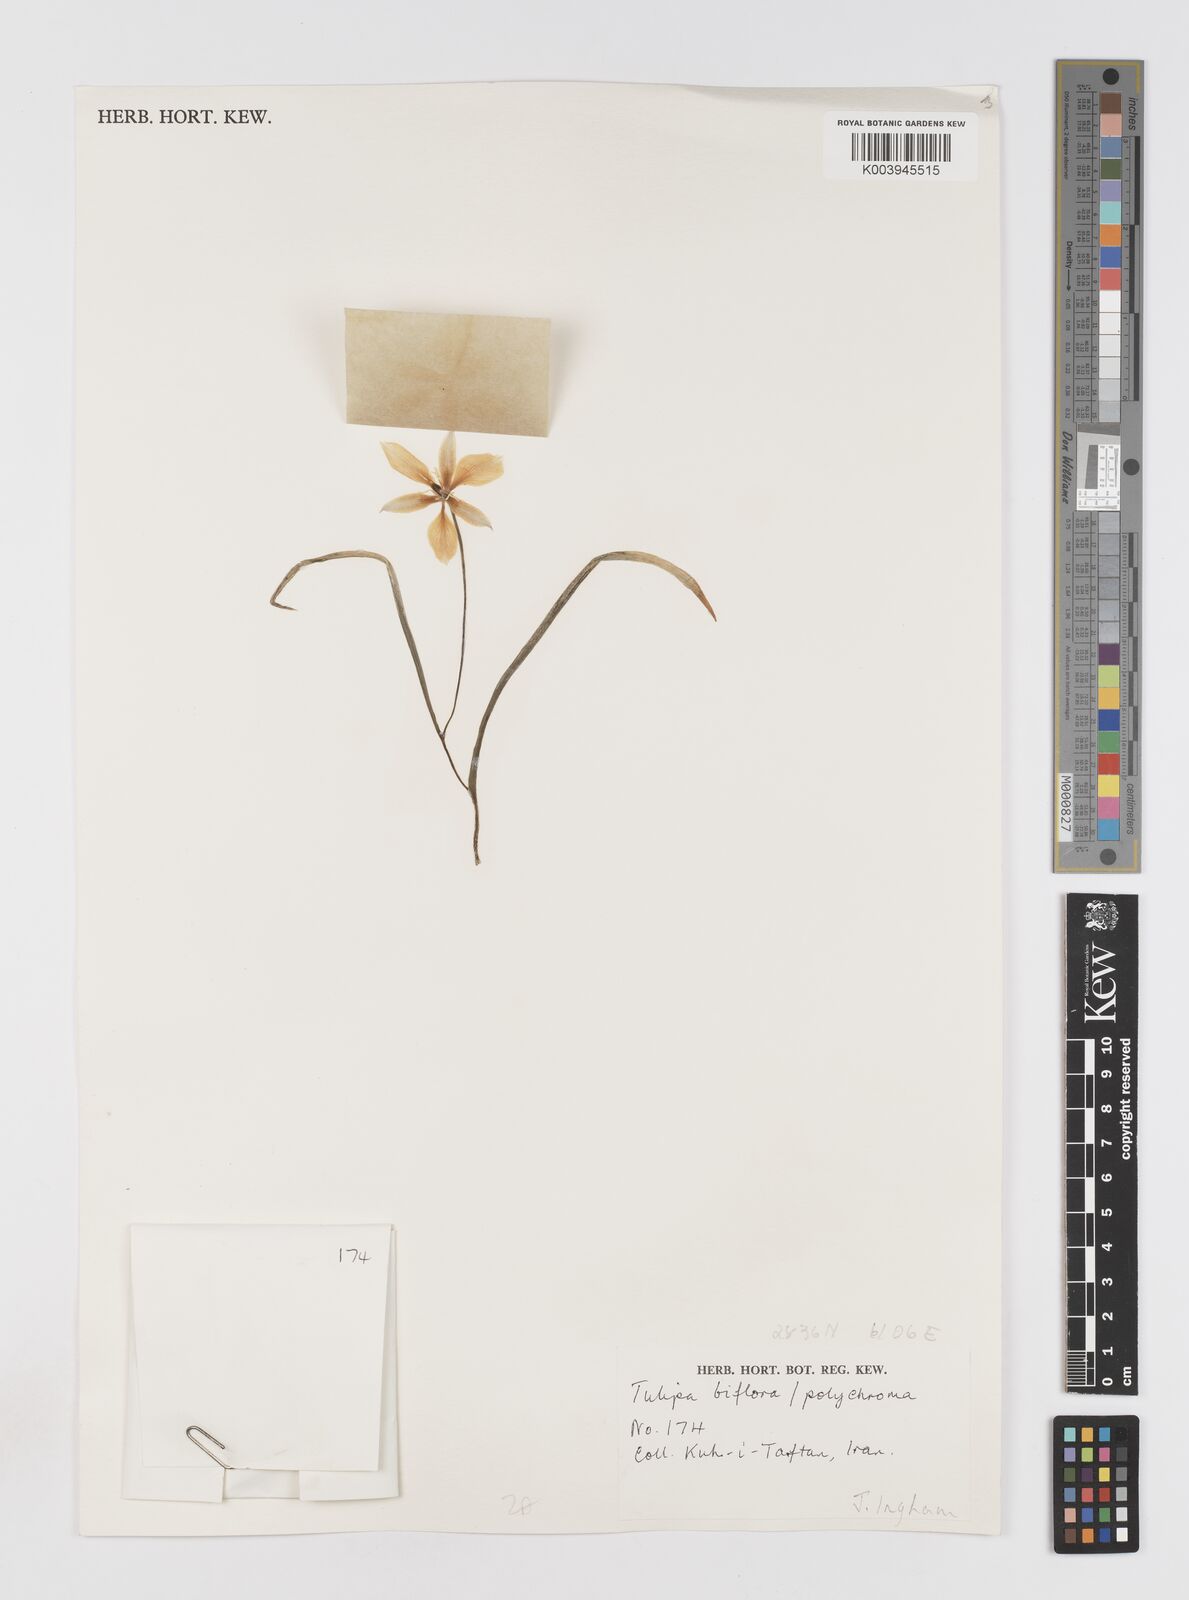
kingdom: Plantae
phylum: Tracheophyta
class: Liliopsida
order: Liliales
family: Liliaceae
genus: Tulipa
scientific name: Tulipa biflora
